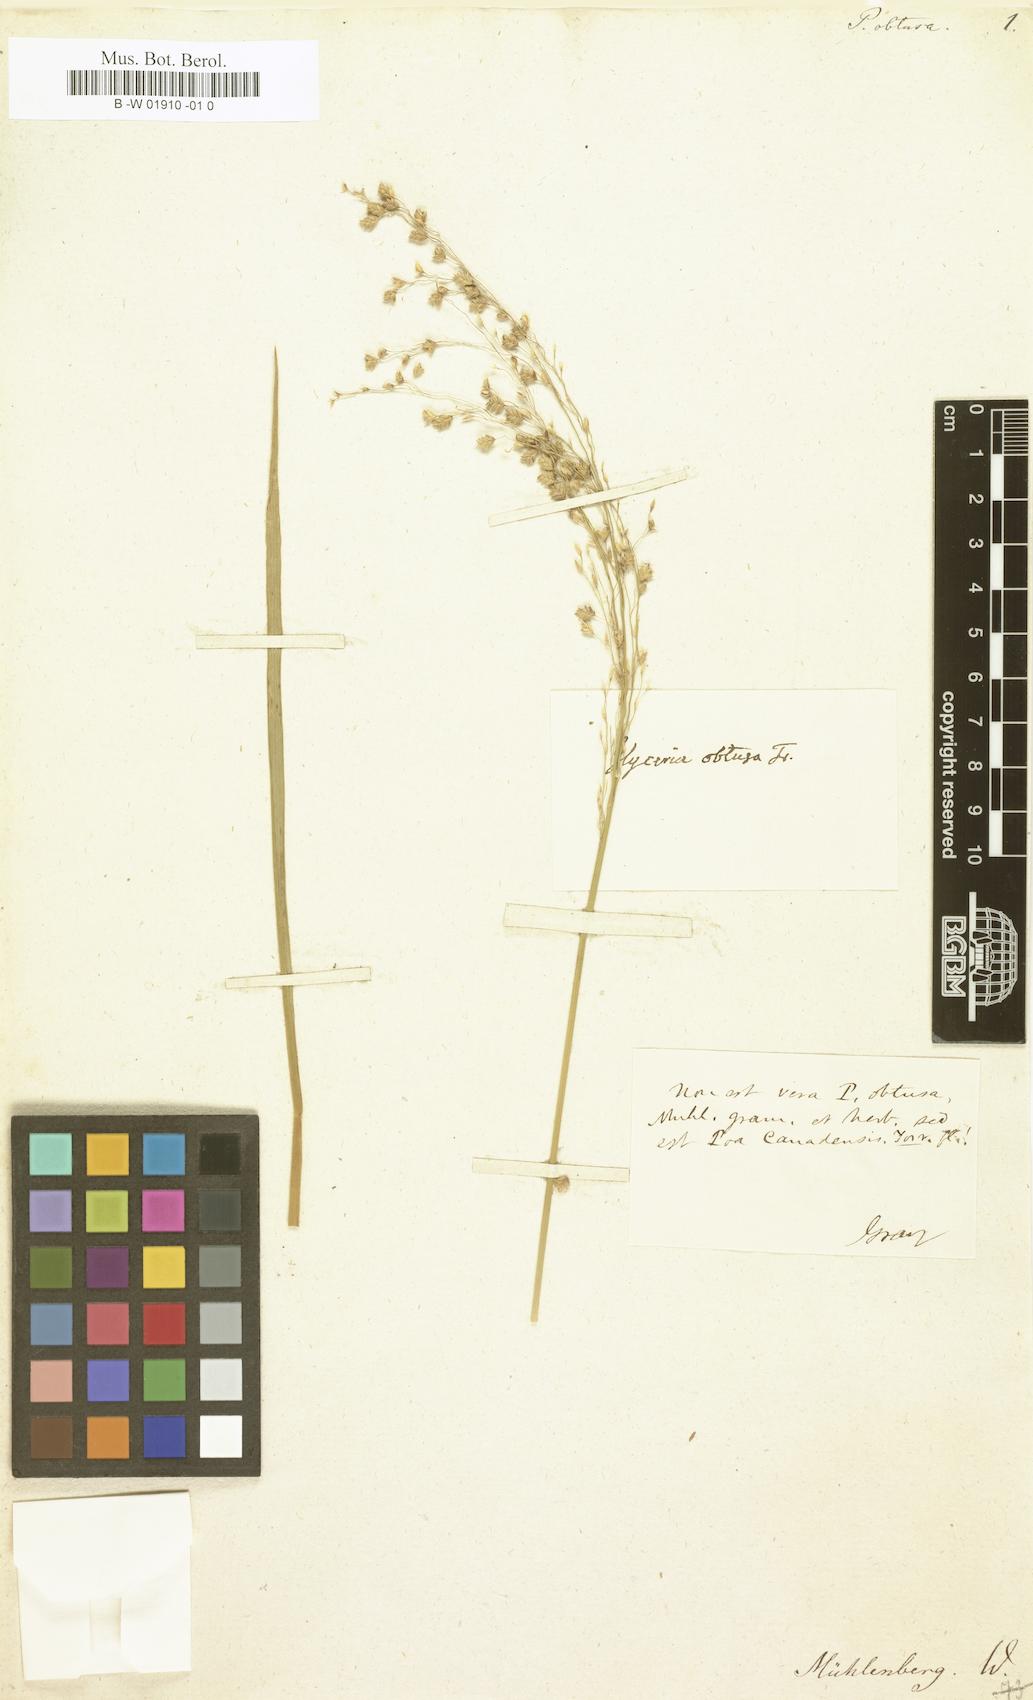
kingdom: Plantae
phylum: Tracheophyta
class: Liliopsida
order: Poales
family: Poaceae
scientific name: Poaceae
